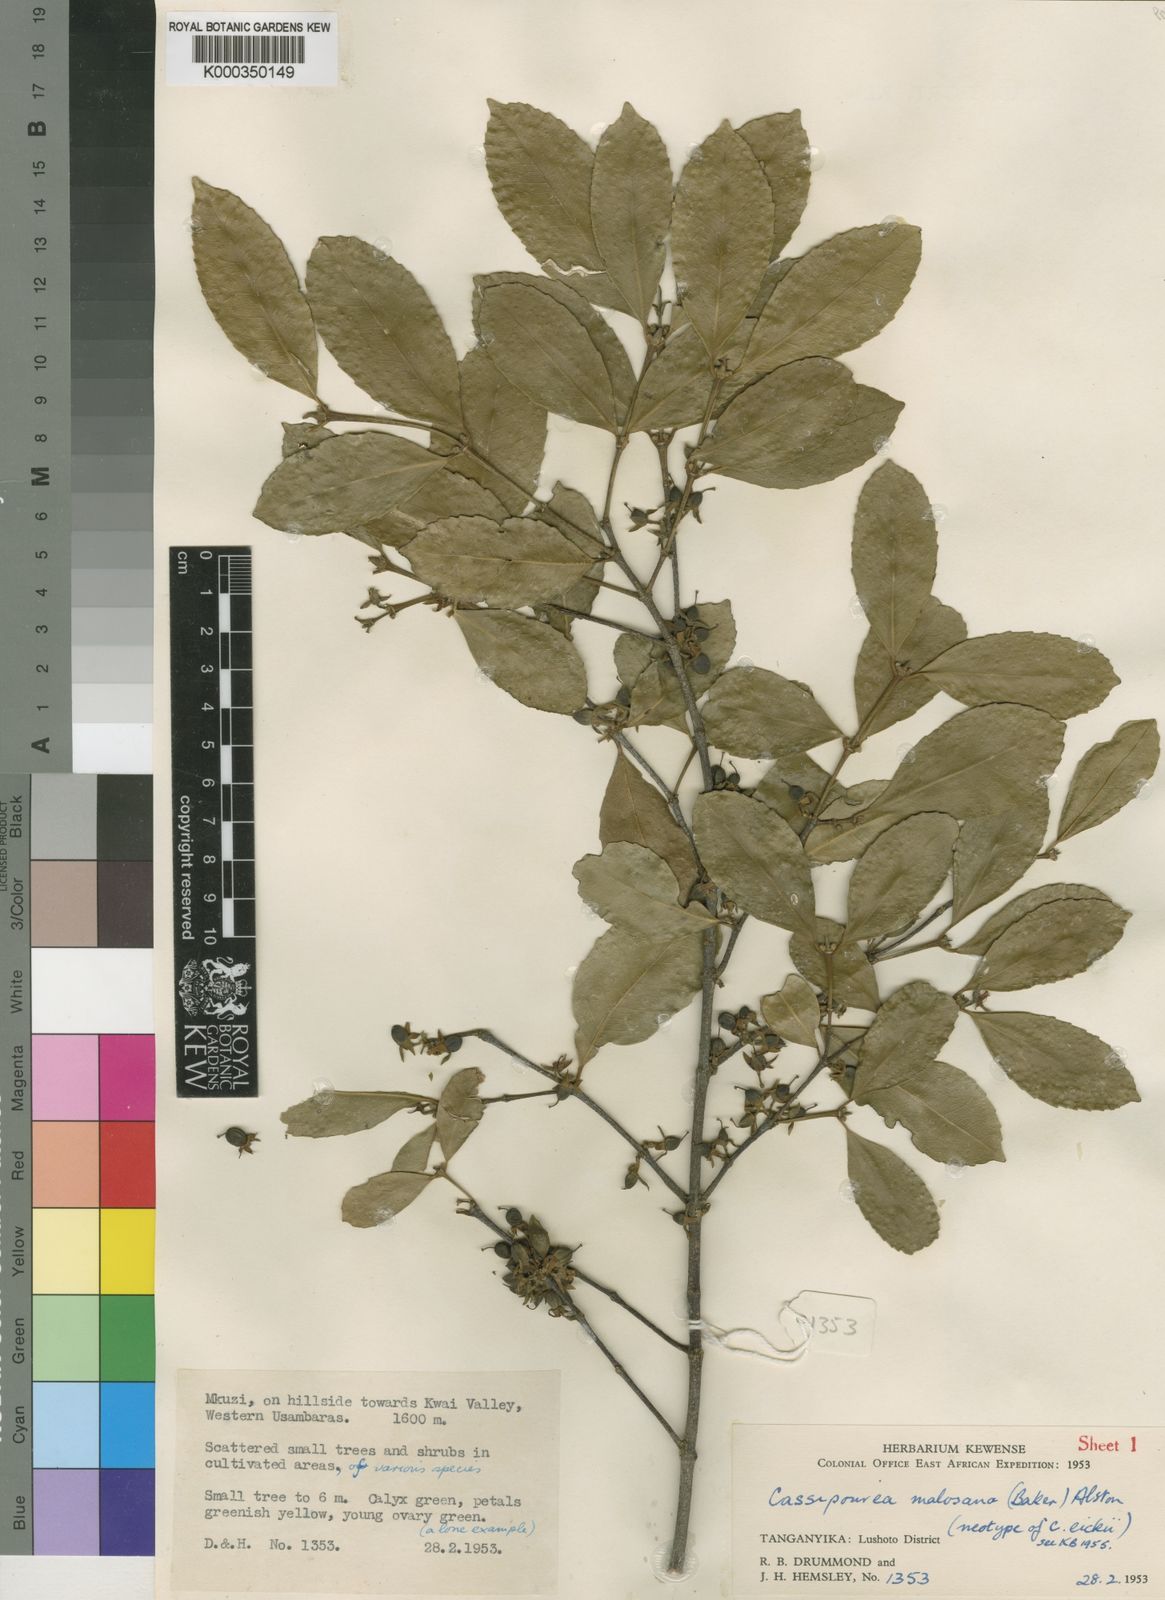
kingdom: Plantae
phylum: Tracheophyta
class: Magnoliopsida
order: Malpighiales
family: Rhizophoraceae
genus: Cassipourea
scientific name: Cassipourea malosana
